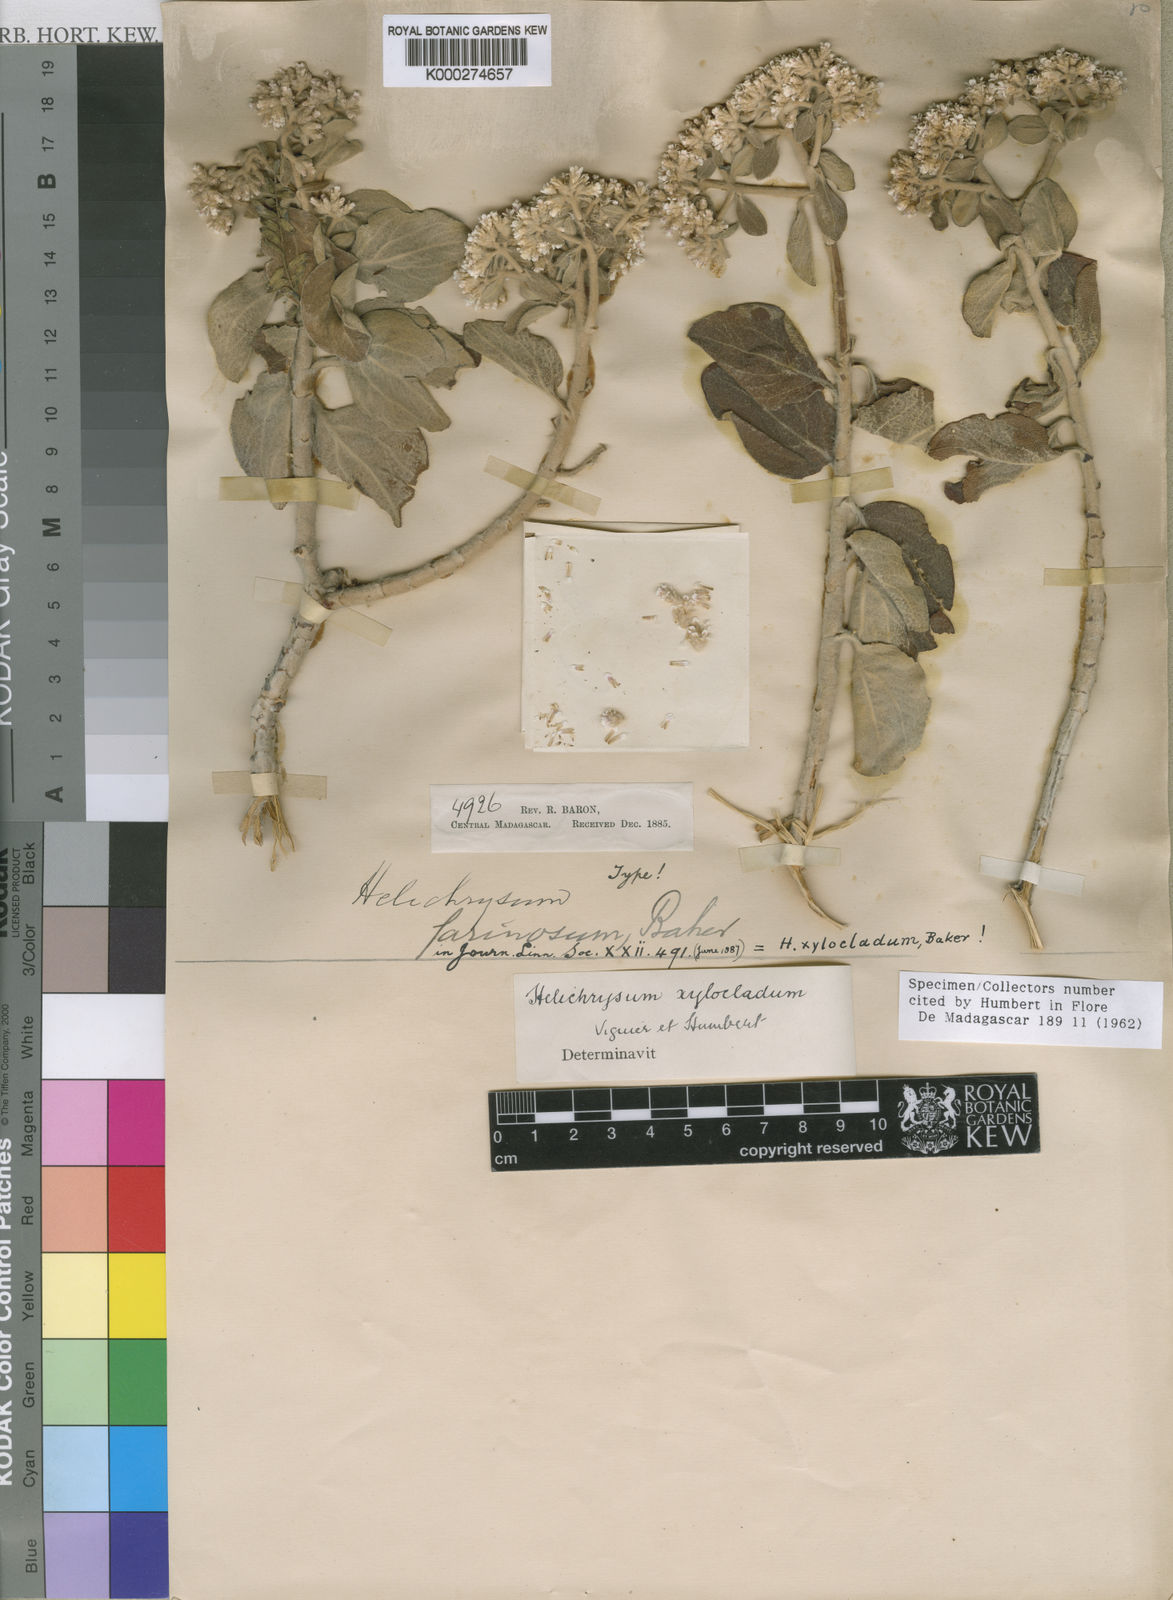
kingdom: Plantae
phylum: Tracheophyta
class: Magnoliopsida
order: Asterales
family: Asteraceae
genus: Helichrysum
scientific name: Helichrysum
